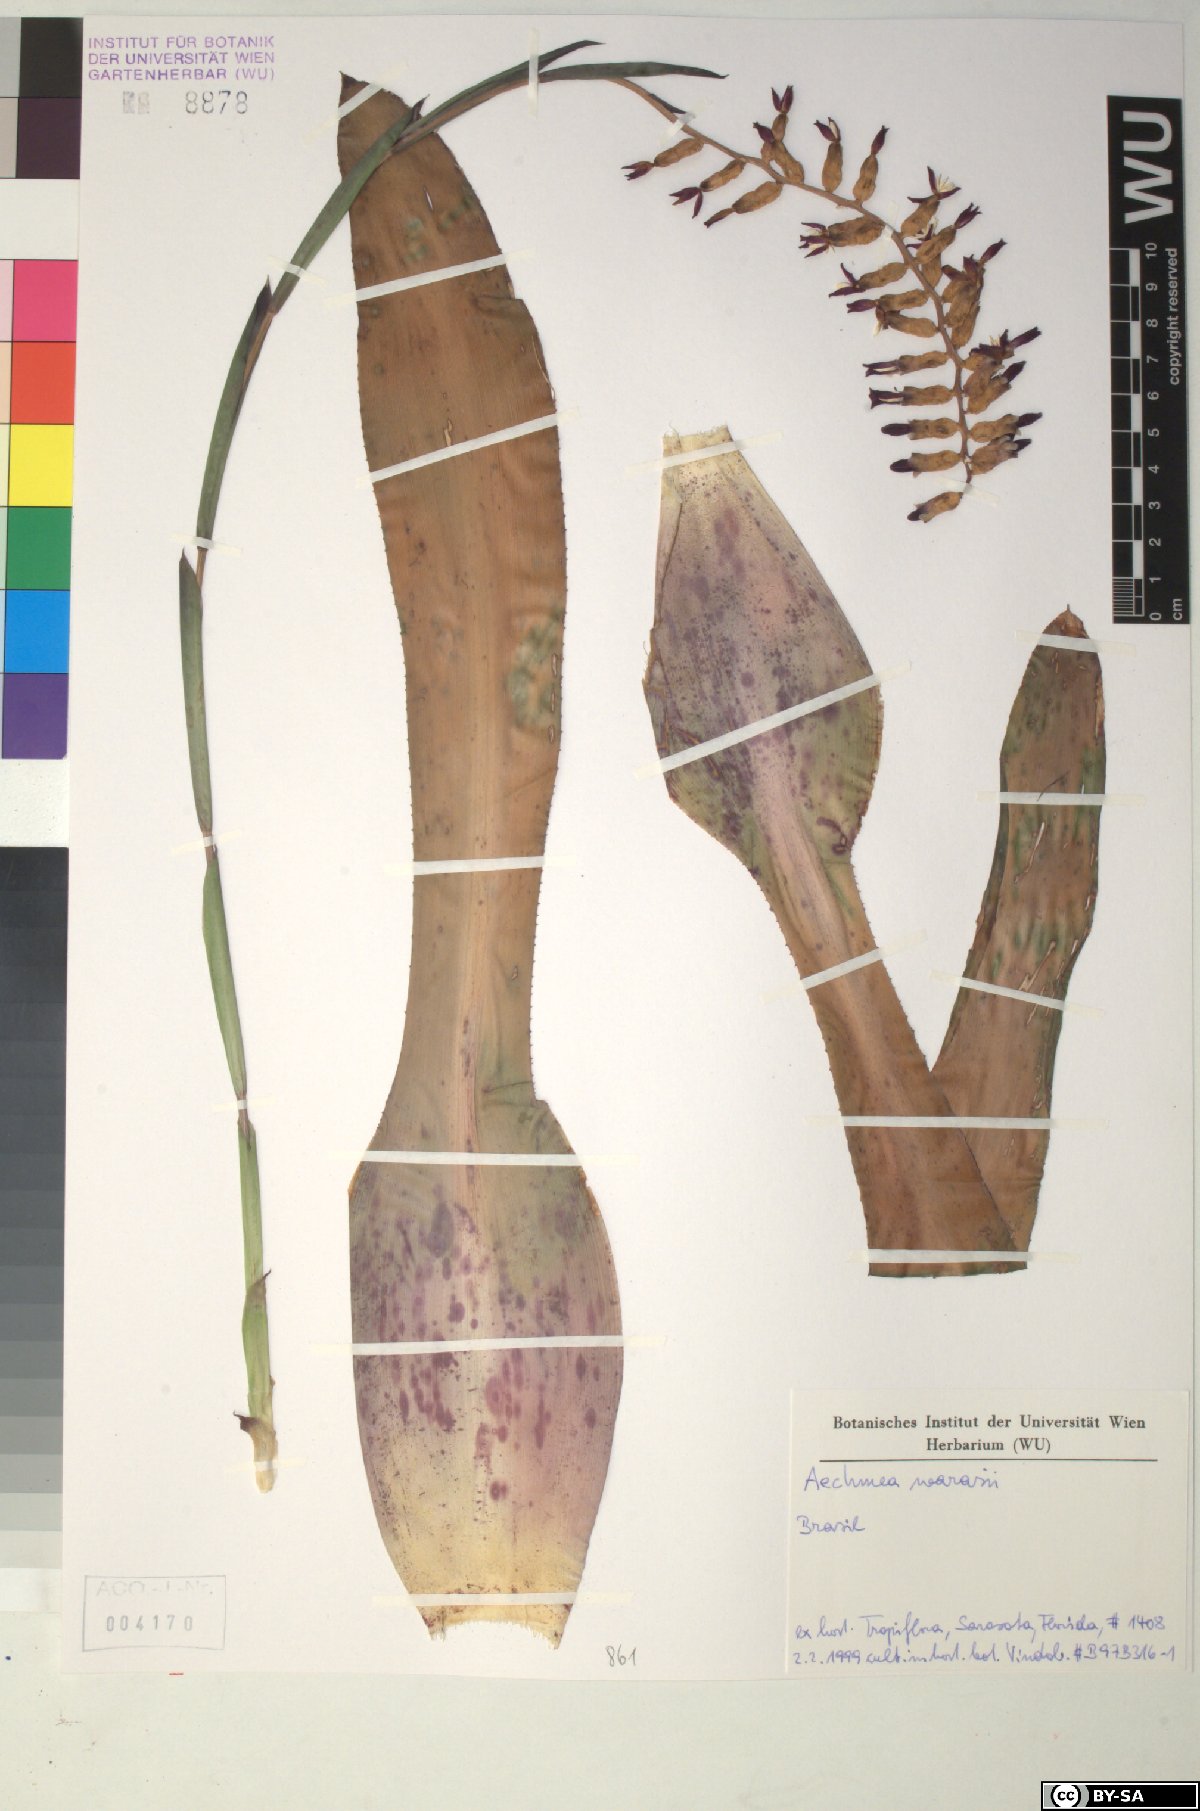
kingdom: Plantae
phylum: Tracheophyta
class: Liliopsida
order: Poales
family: Bromeliaceae
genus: Aechmea
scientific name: Aechmea
